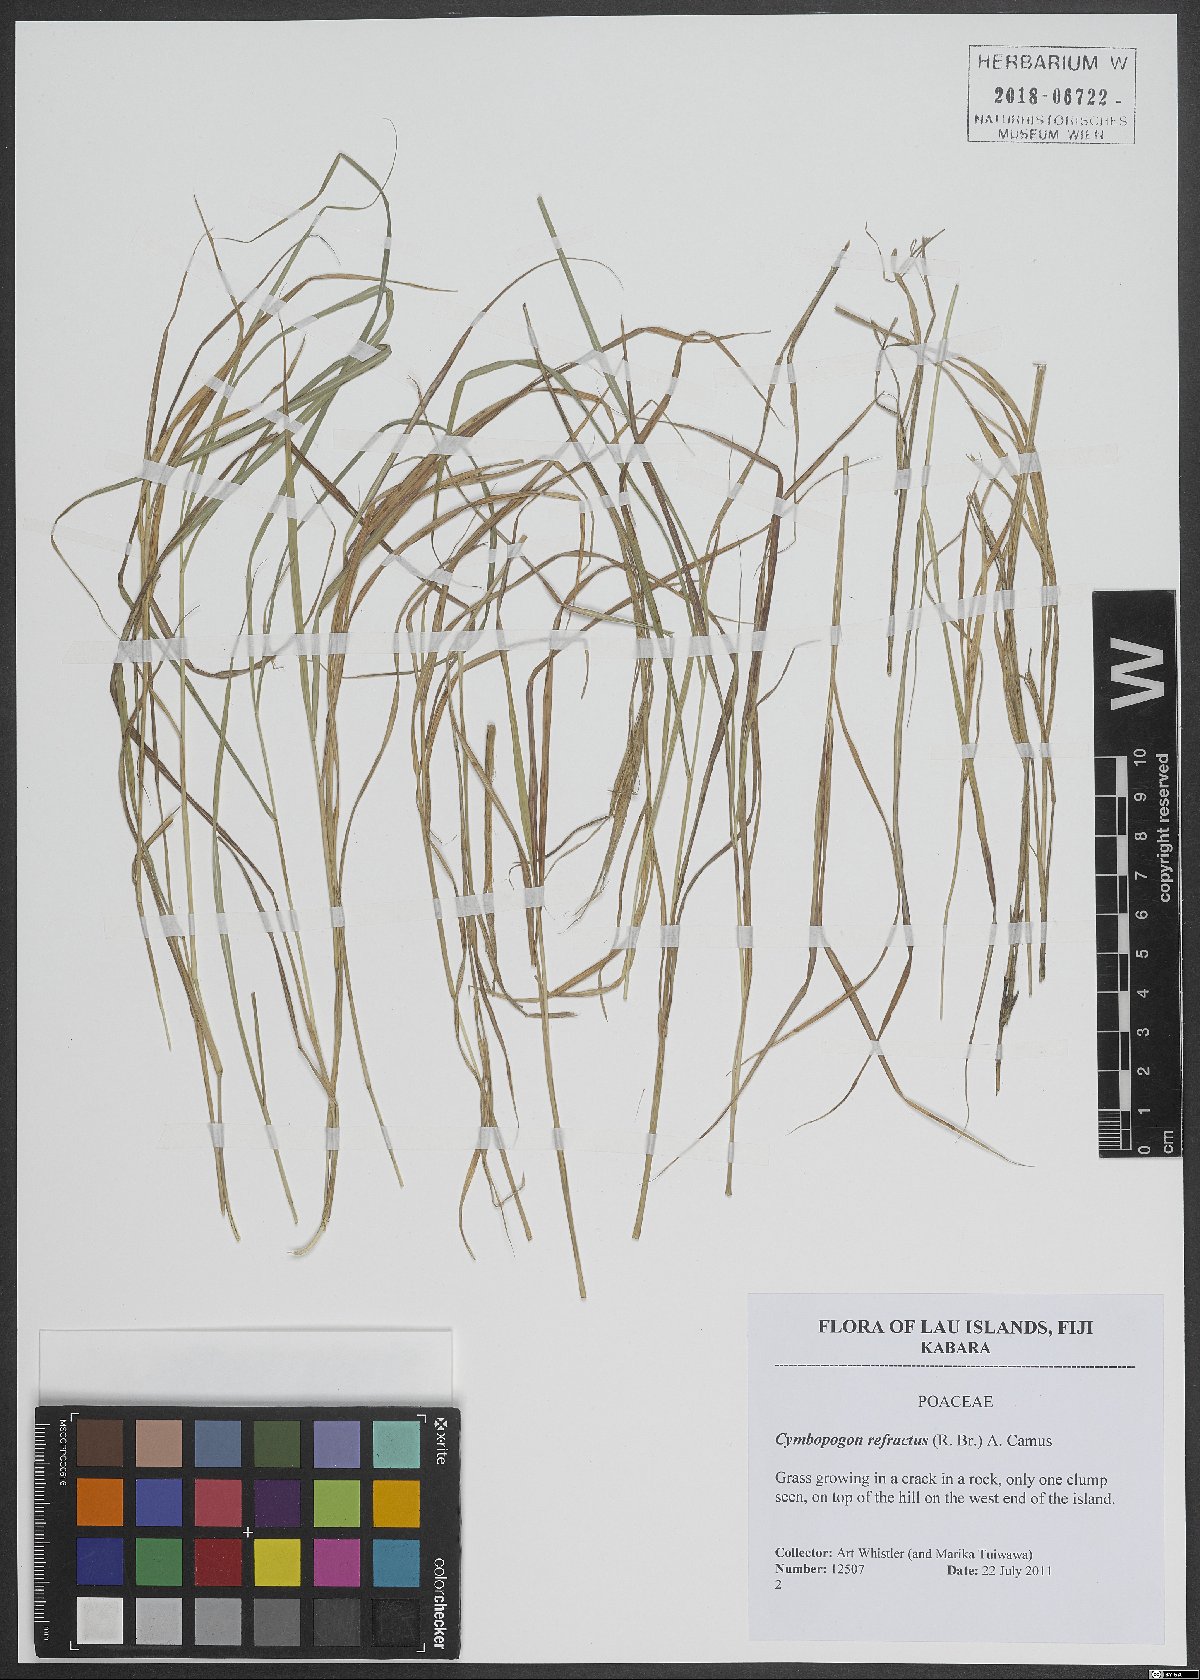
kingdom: Plantae
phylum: Tracheophyta
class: Liliopsida
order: Poales
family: Poaceae
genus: Cymbopogon
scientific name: Cymbopogon refractus
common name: Barbwire grass
